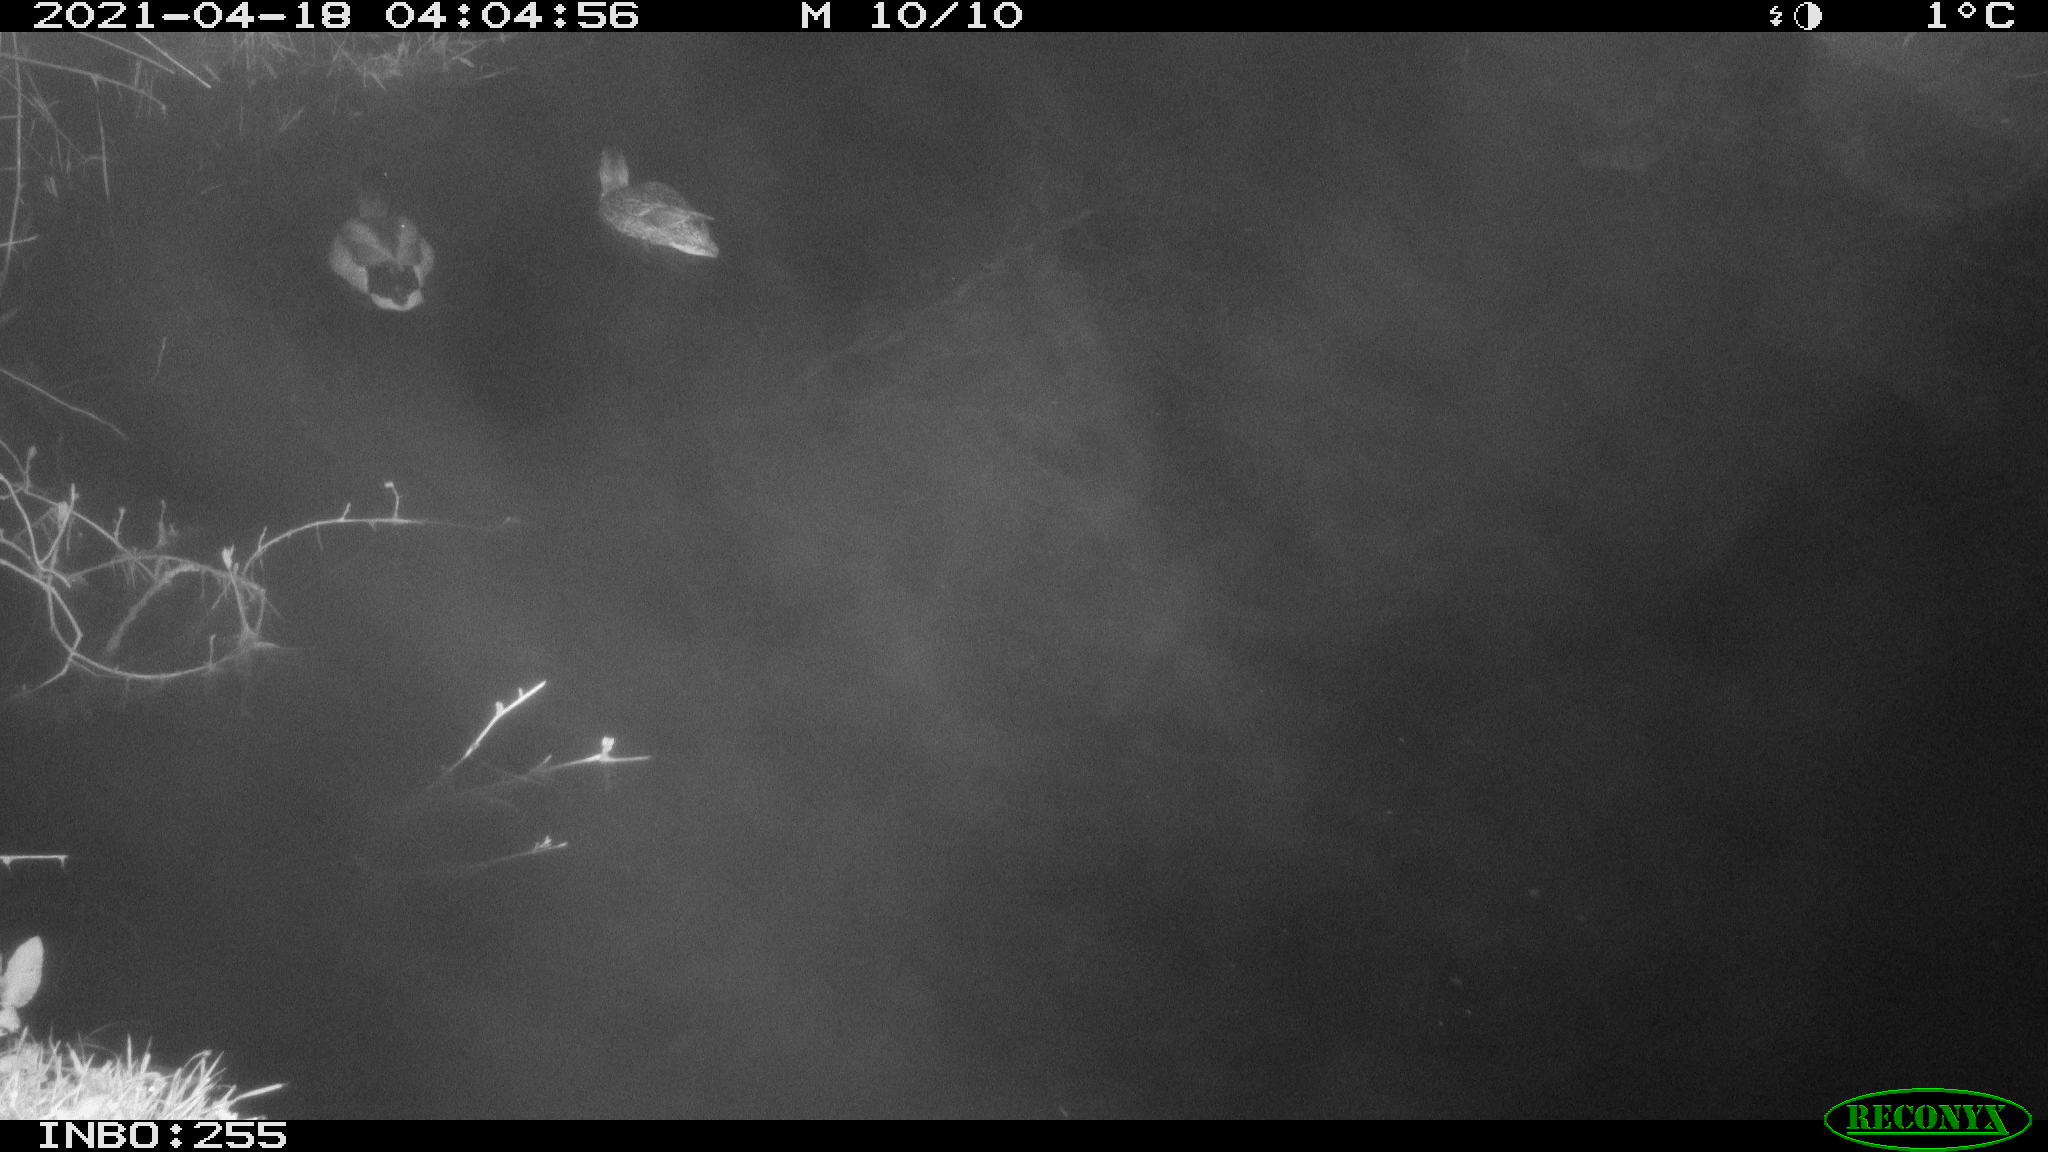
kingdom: Animalia
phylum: Chordata
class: Aves
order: Anseriformes
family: Anatidae
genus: Anas
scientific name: Anas platyrhynchos
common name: Mallard
